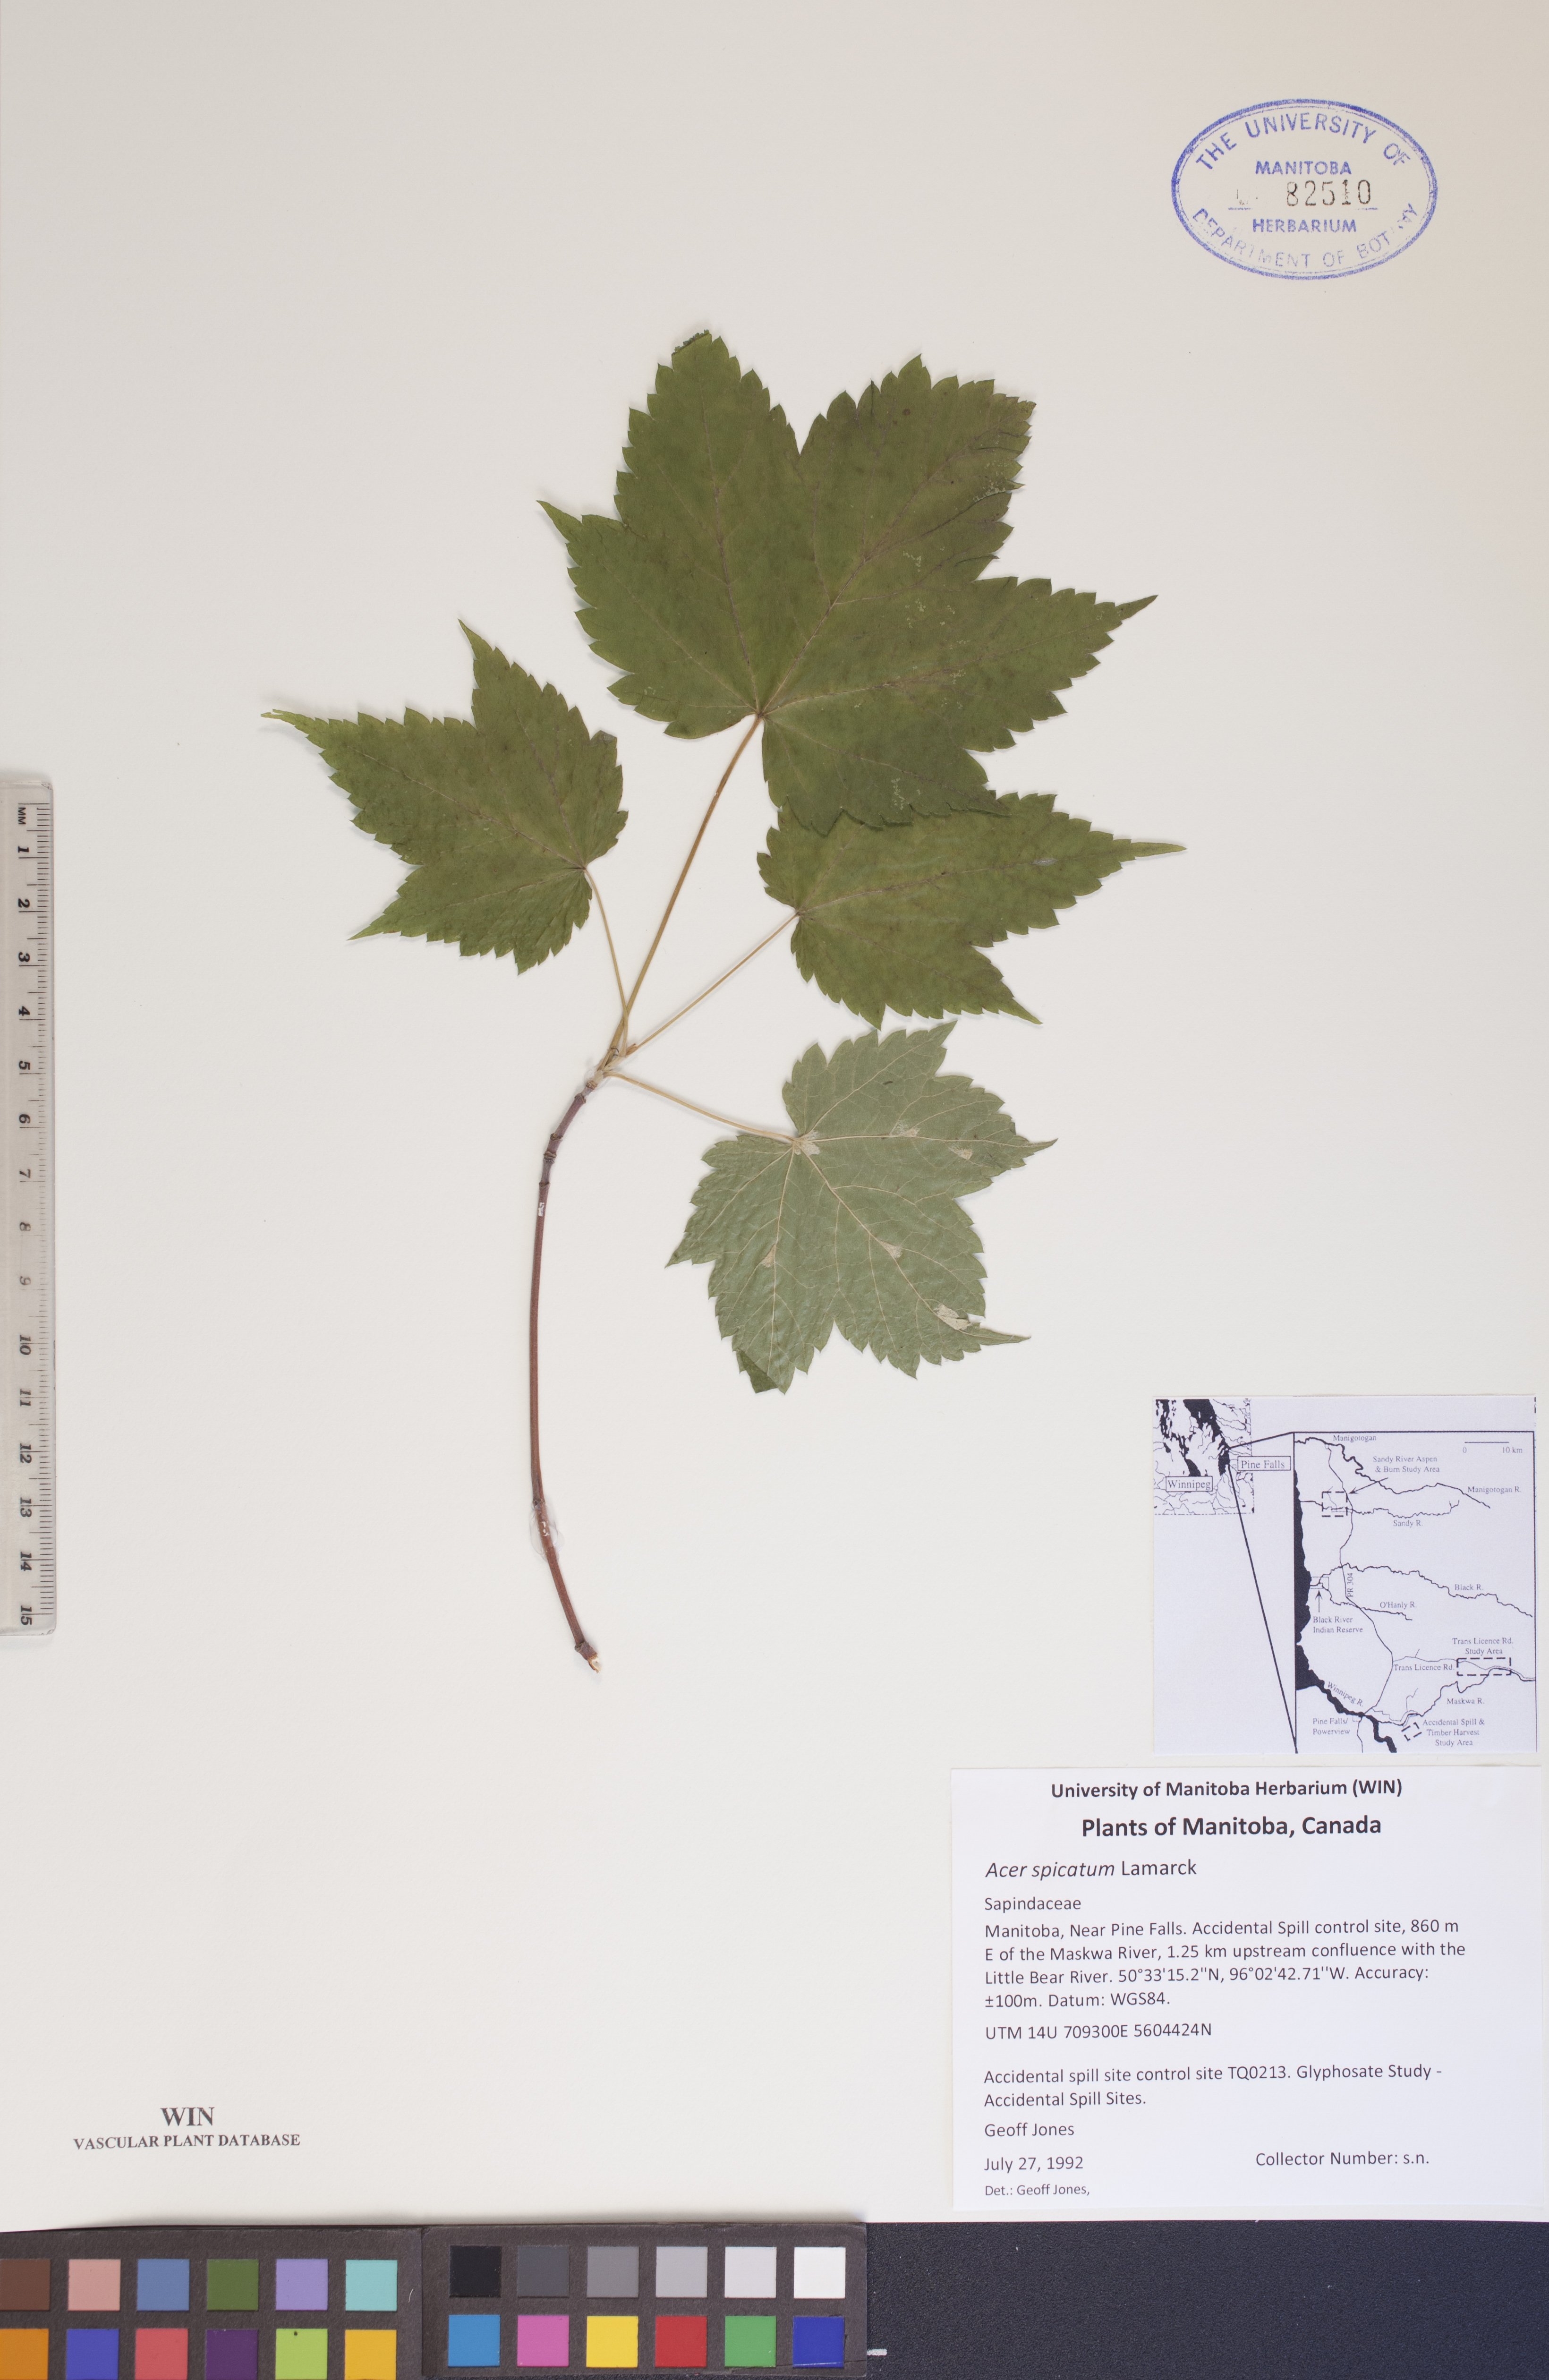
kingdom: Plantae
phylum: Tracheophyta
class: Magnoliopsida
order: Sapindales
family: Sapindaceae
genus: Acer
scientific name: Acer spicatum
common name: Mountain maple
